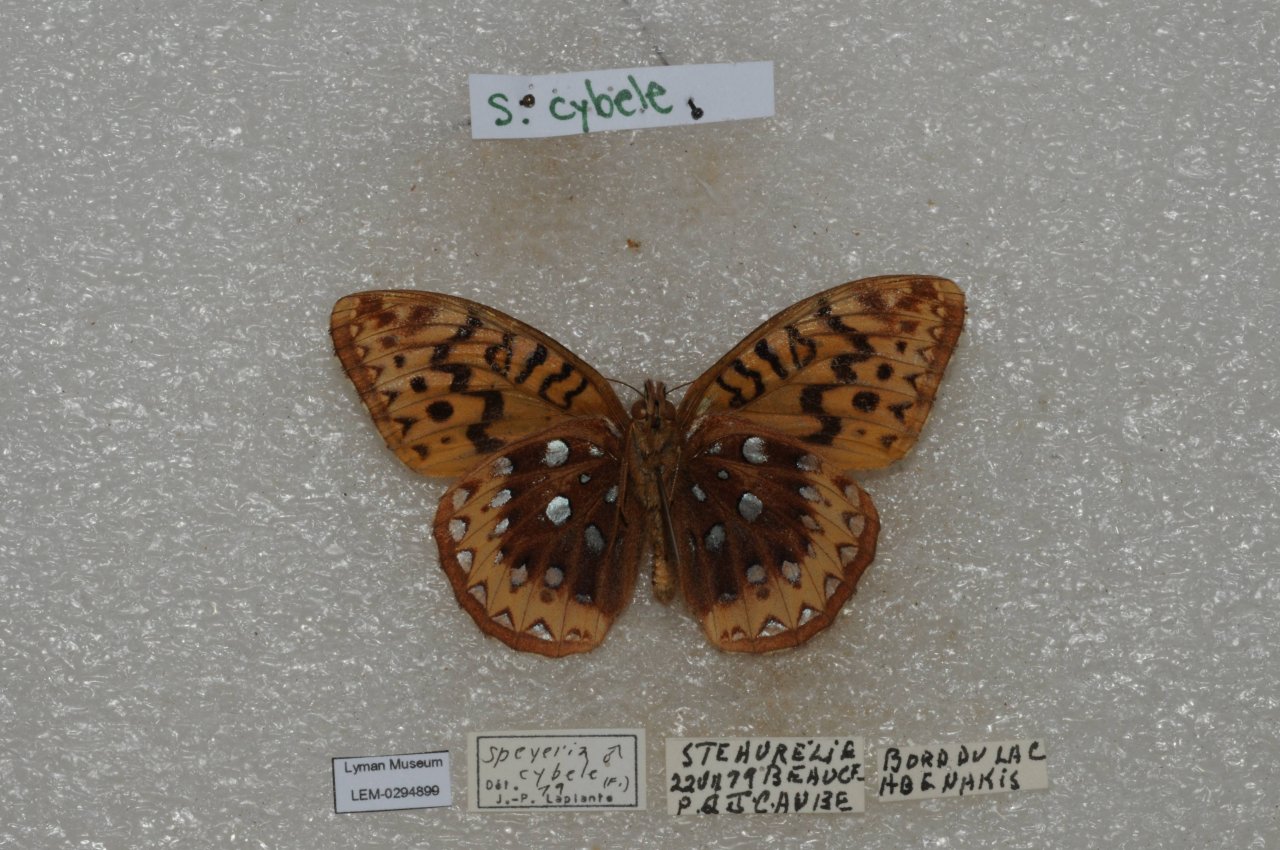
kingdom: Animalia
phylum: Arthropoda
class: Insecta
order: Lepidoptera
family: Nymphalidae
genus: Speyeria
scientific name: Speyeria cybele
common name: Great Spangled Fritillary
